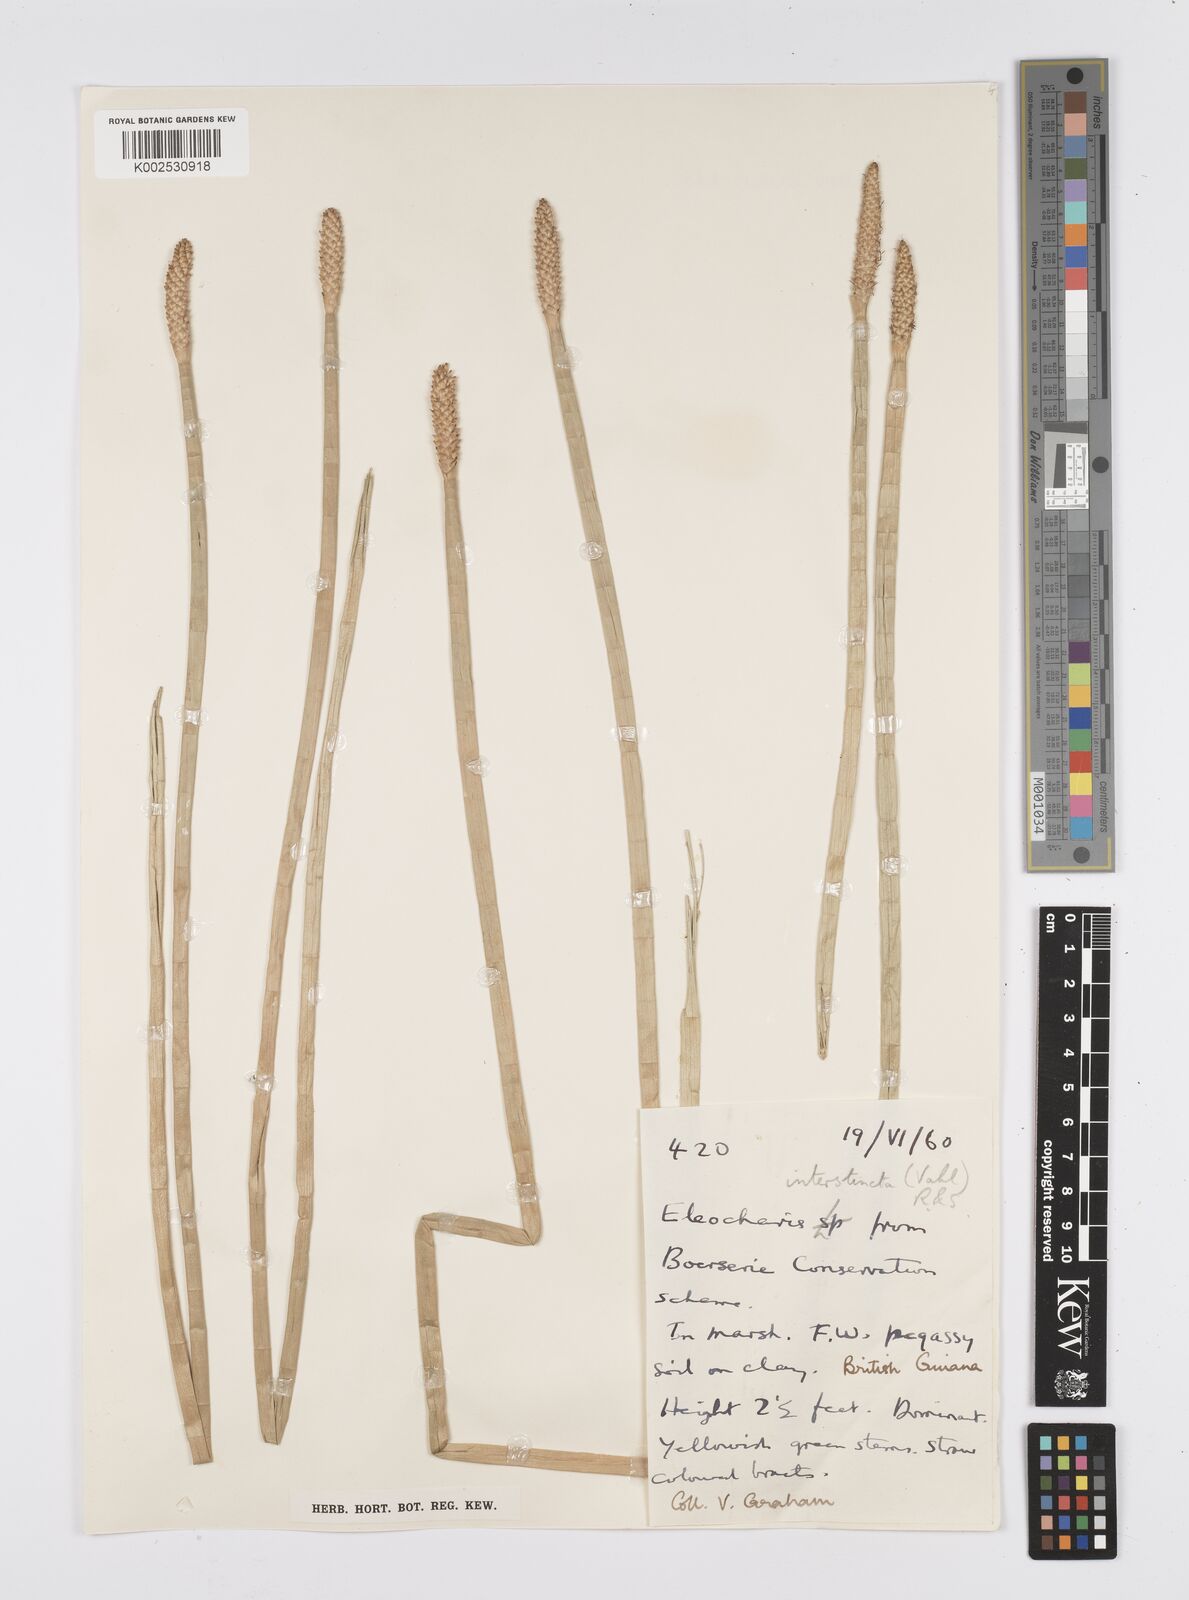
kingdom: Plantae
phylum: Tracheophyta
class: Liliopsida
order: Poales
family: Cyperaceae
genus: Eleocharis
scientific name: Eleocharis interstincta
